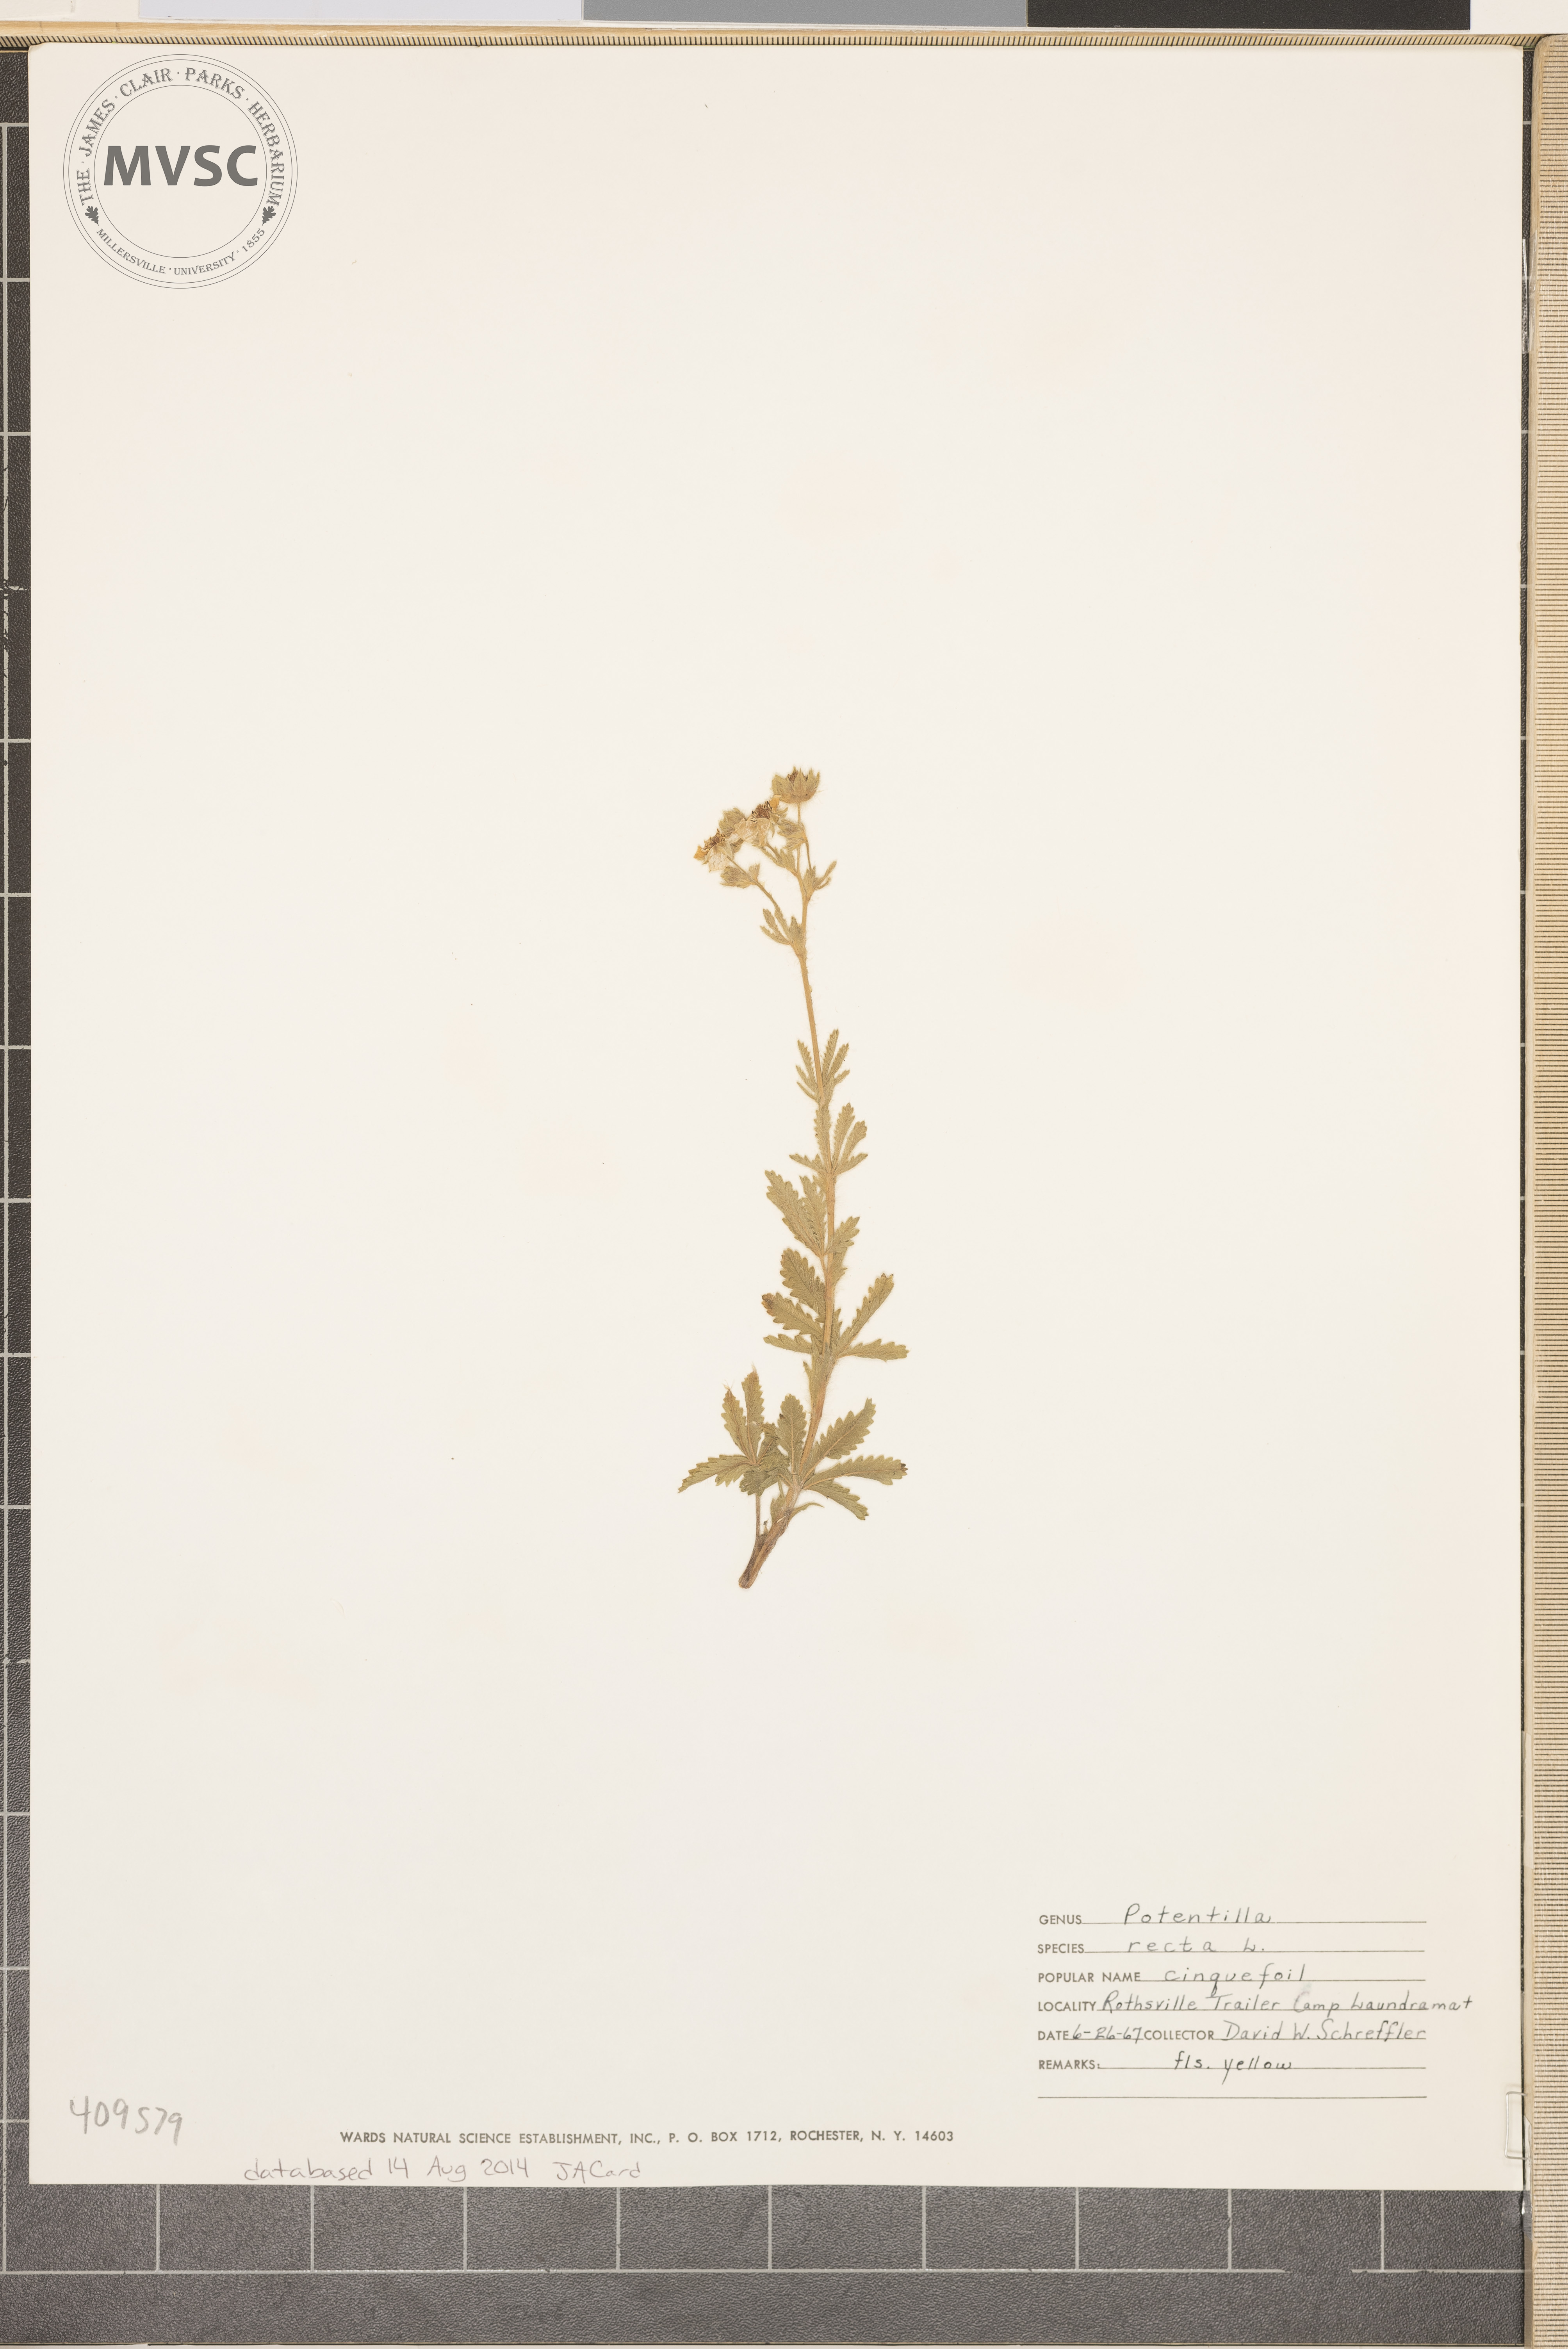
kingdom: Plantae
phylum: Tracheophyta
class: Magnoliopsida
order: Rosales
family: Rosaceae
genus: Potentilla
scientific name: Potentilla recta
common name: Sulphur cinquefoil
